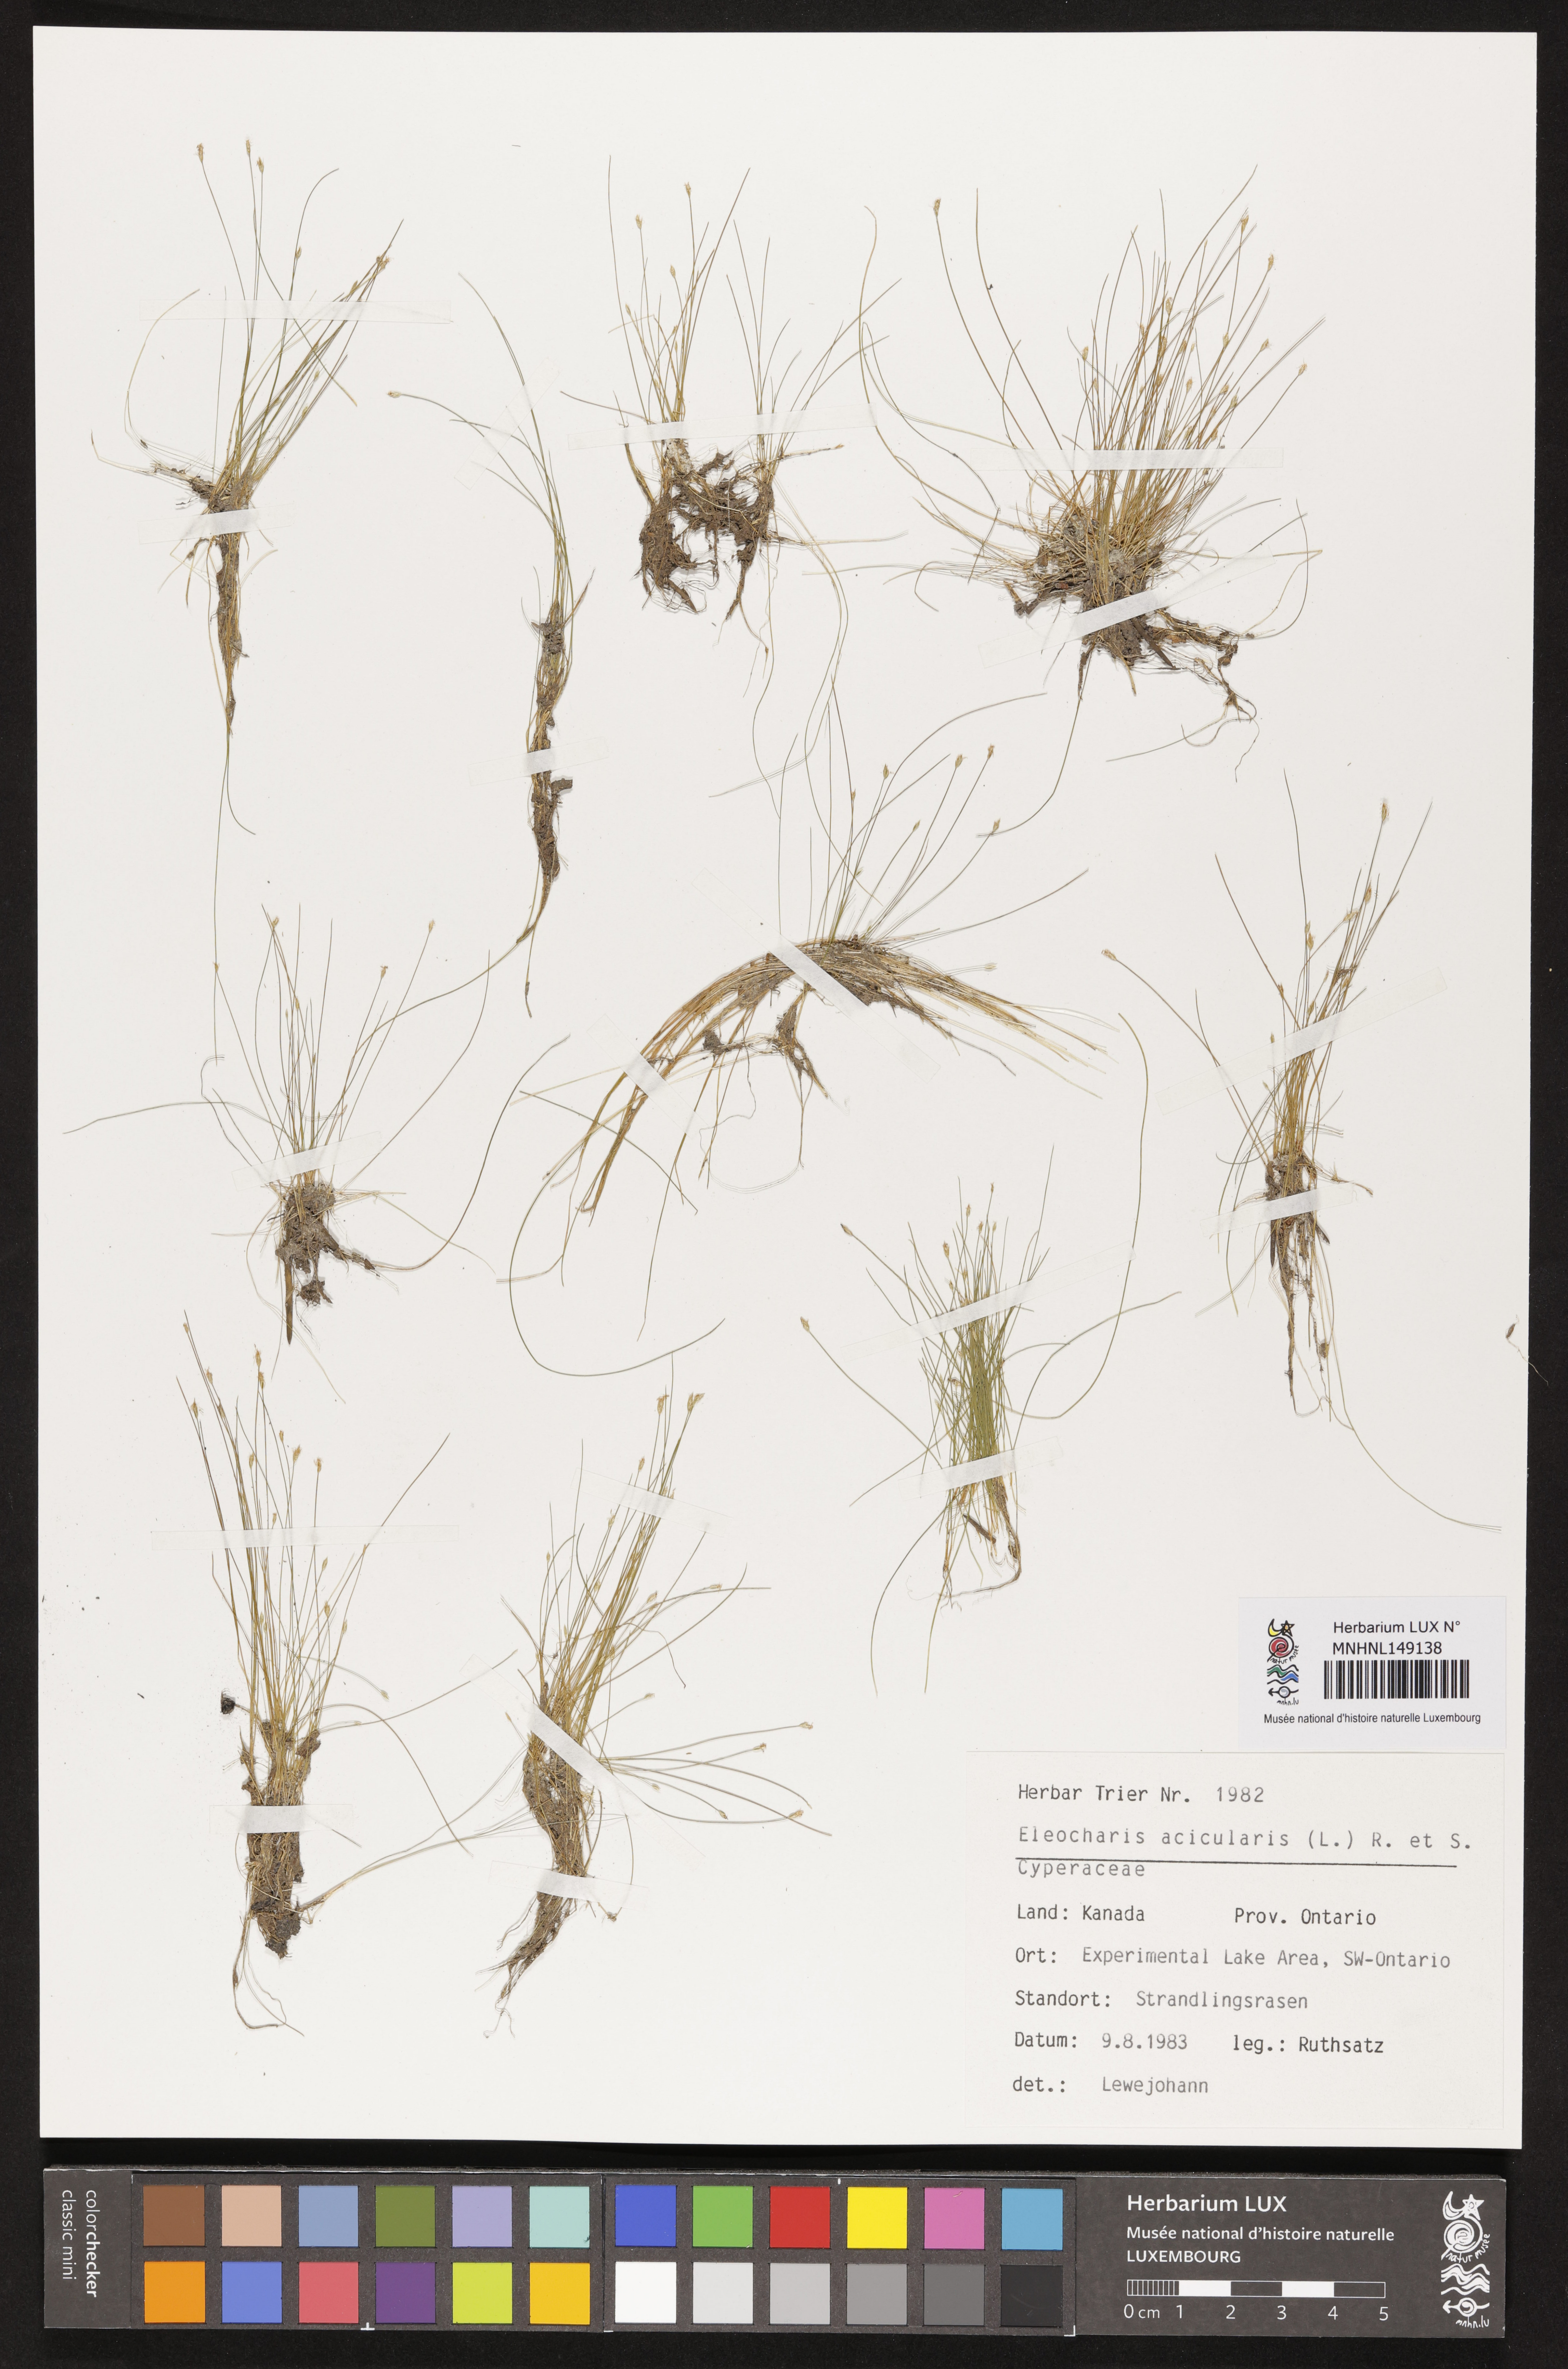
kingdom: Plantae
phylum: Tracheophyta
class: Liliopsida
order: Poales
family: Cyperaceae
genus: Eleocharis
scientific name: Eleocharis acicularis
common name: Needle spike-rush
